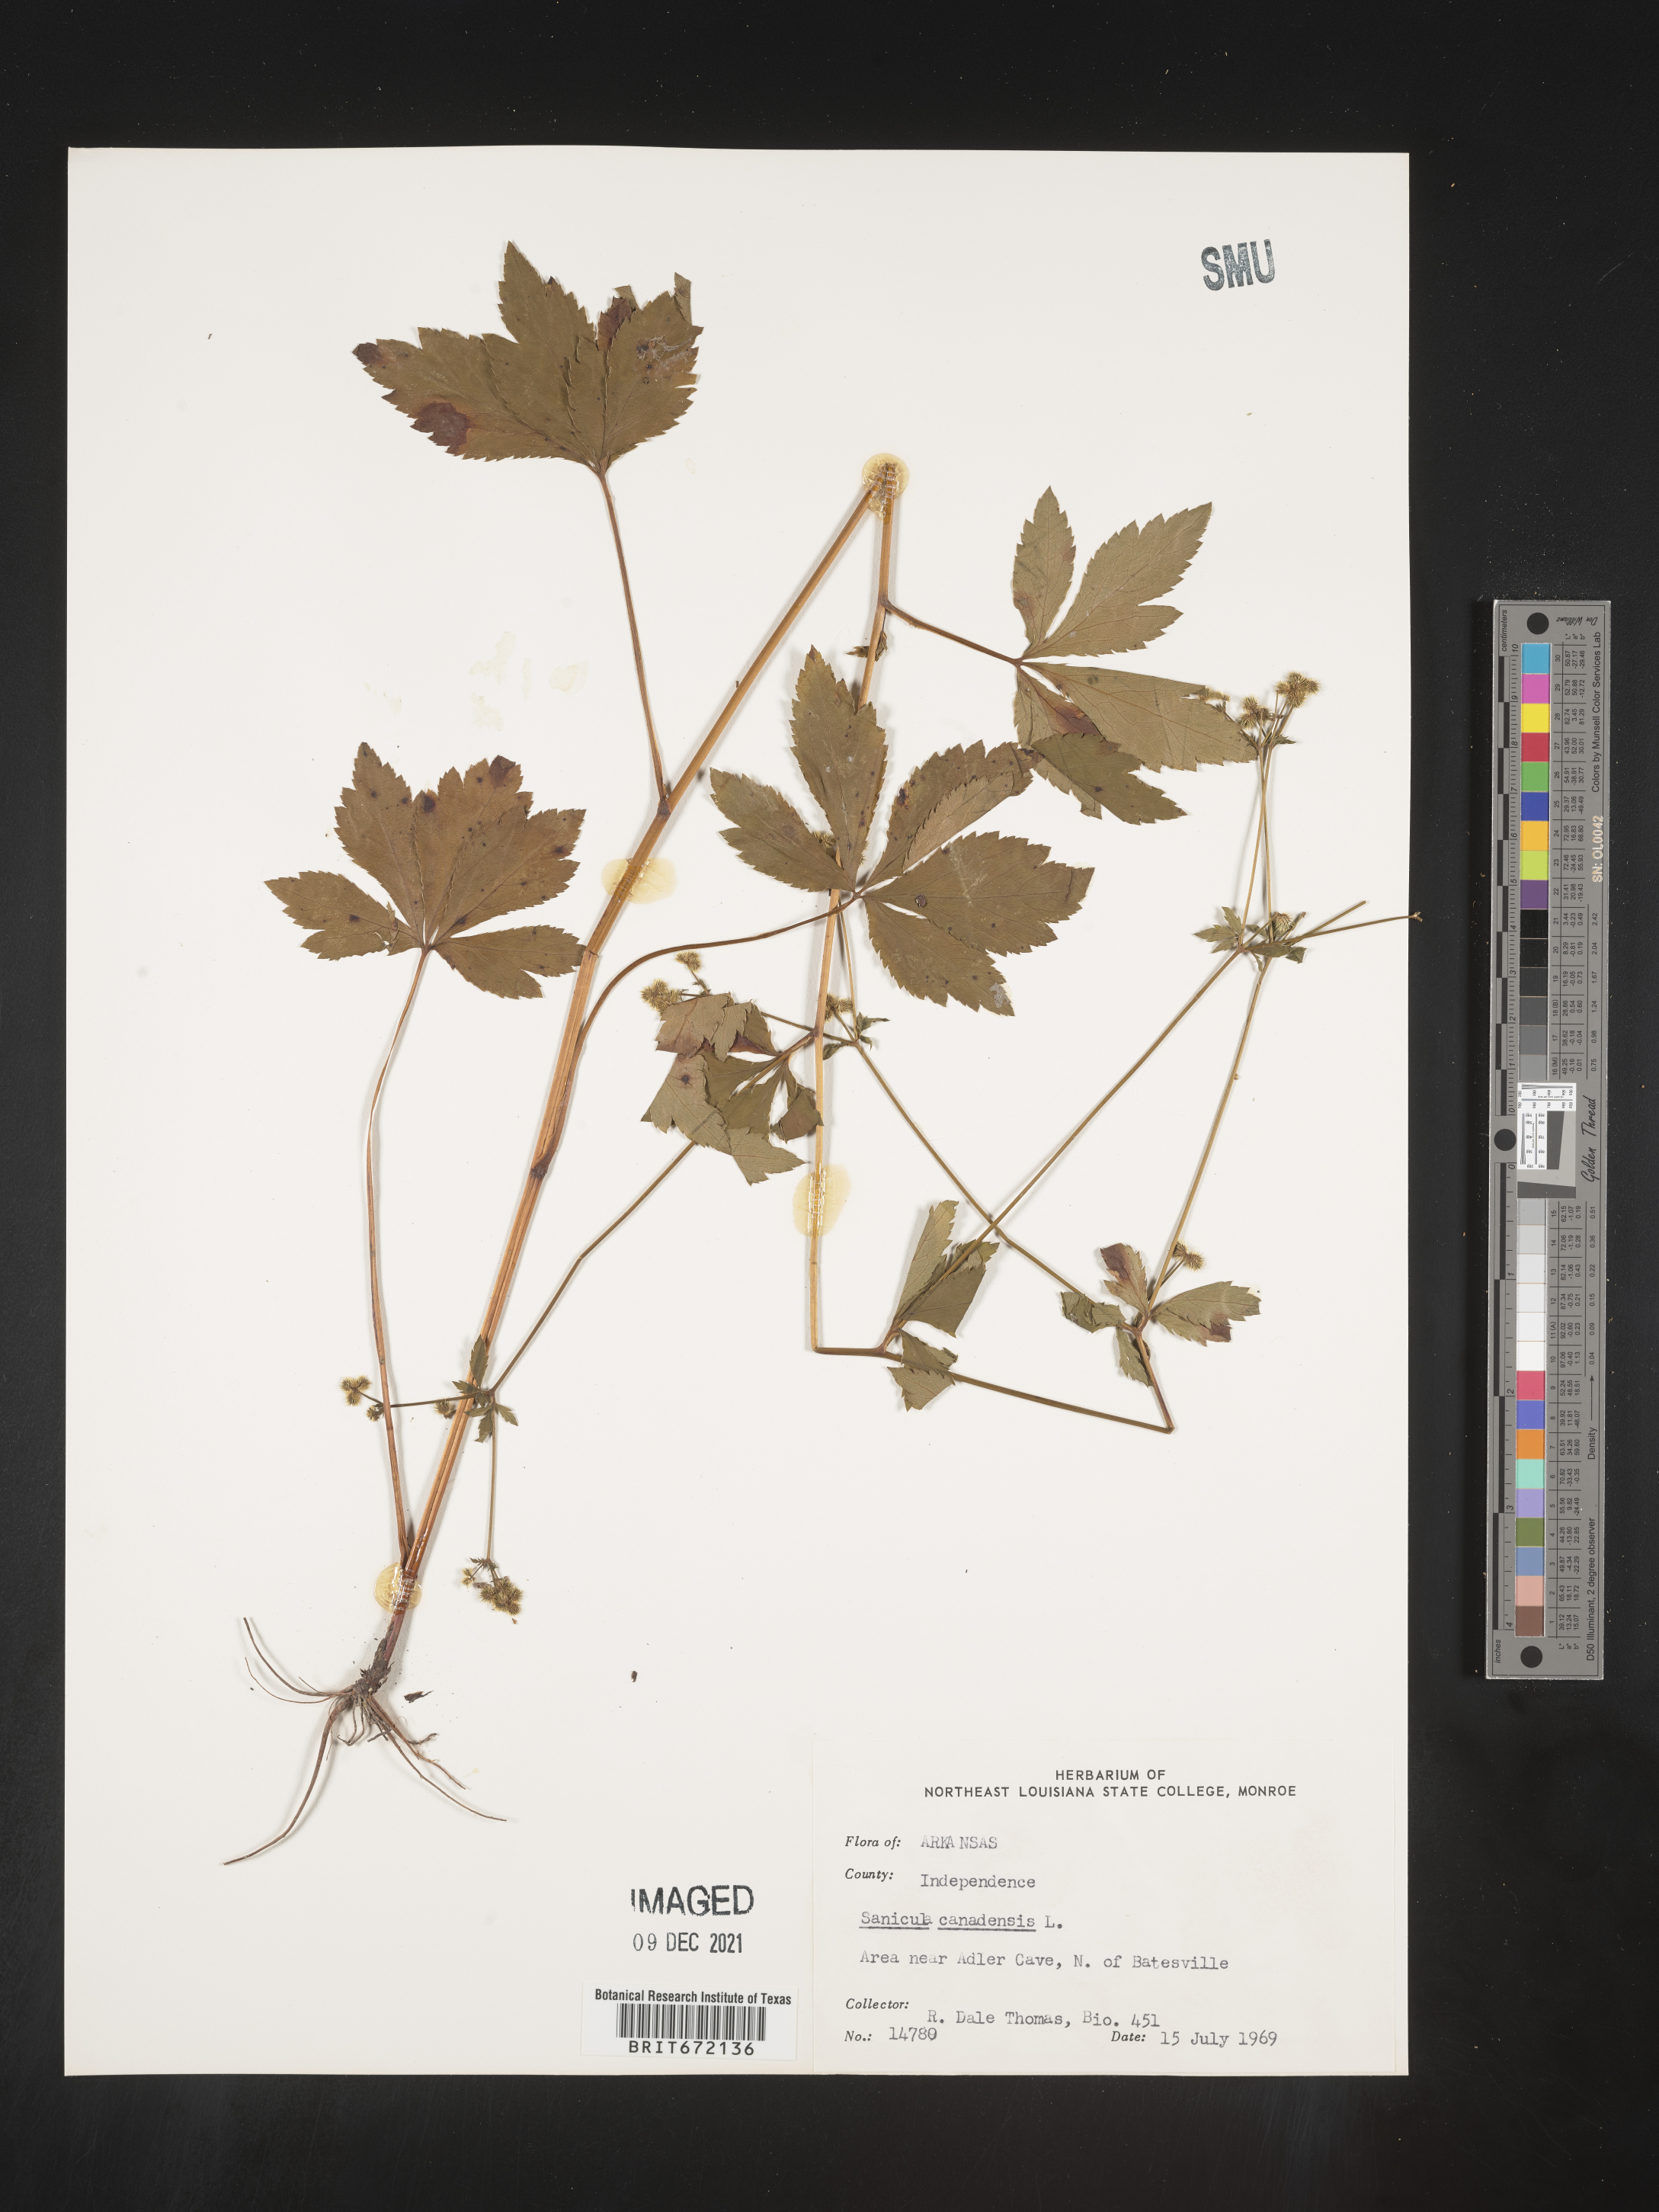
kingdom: Plantae
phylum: Tracheophyta
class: Magnoliopsida
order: Apiales
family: Apiaceae
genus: Sanicula
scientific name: Sanicula canadensis
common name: Canada sanicle
